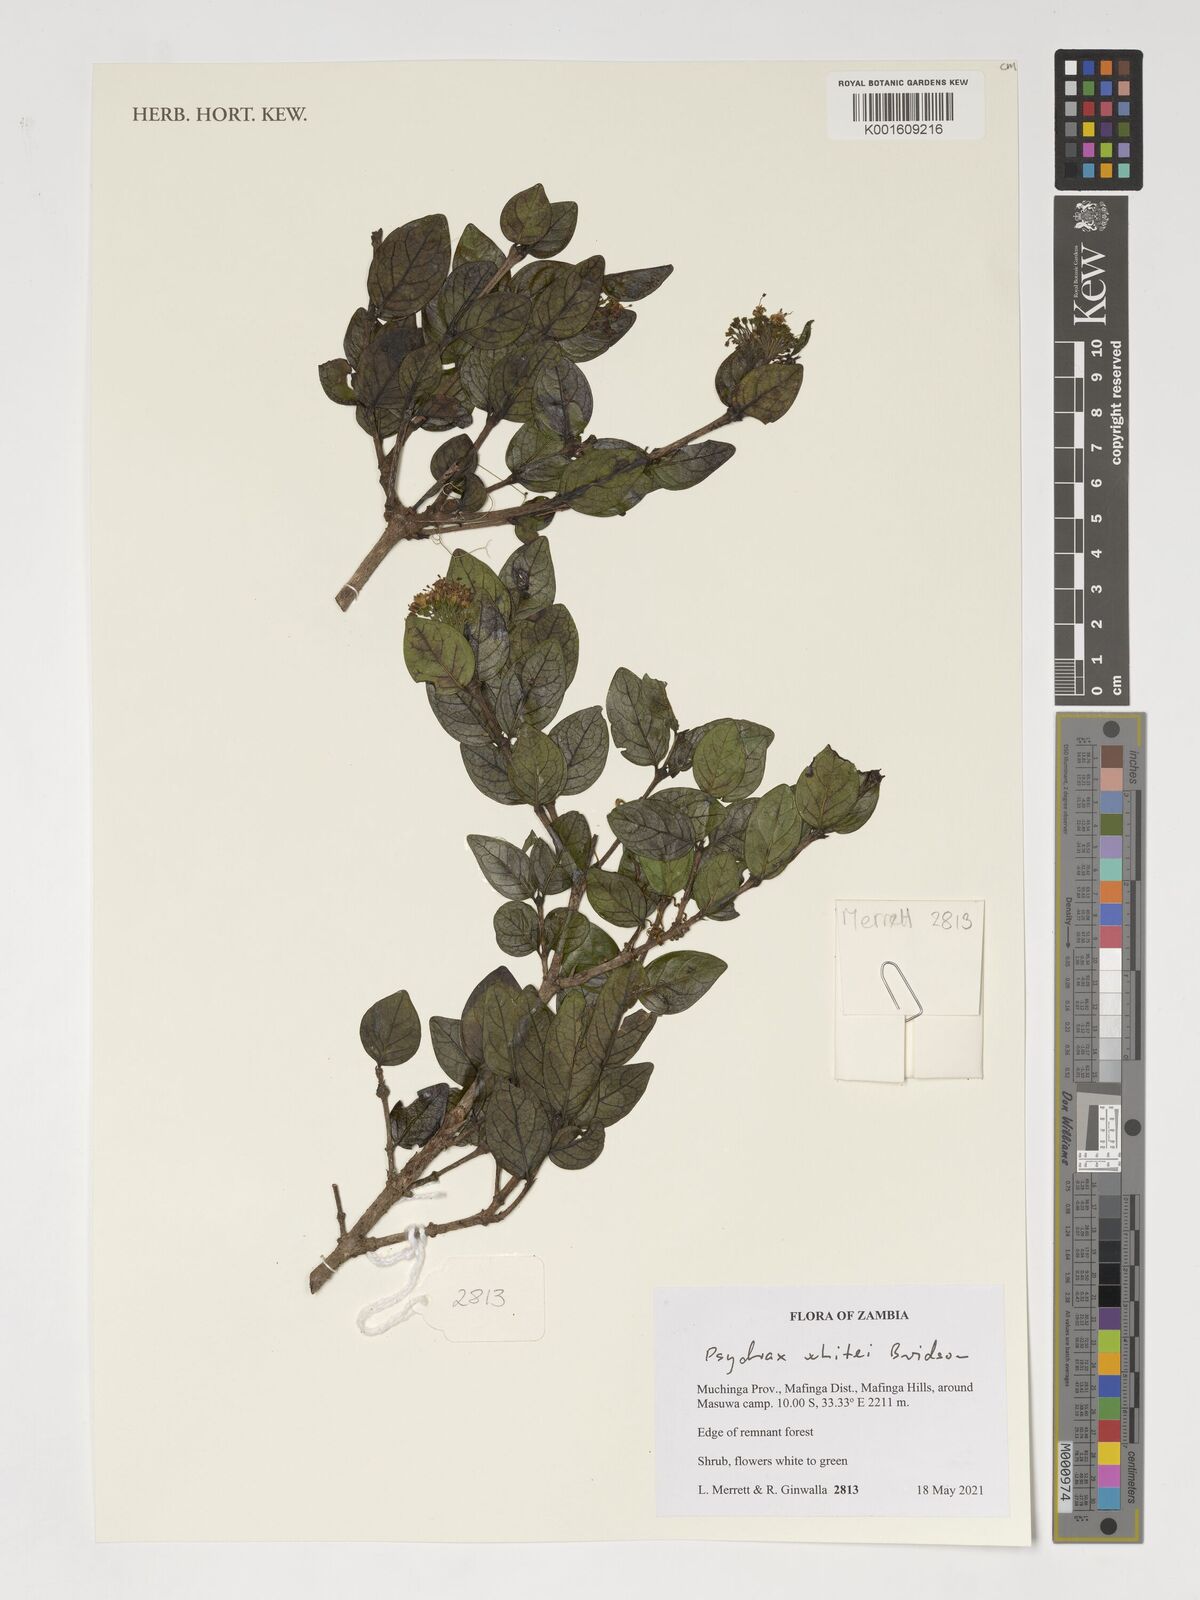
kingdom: Plantae
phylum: Tracheophyta
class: Magnoliopsida
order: Gentianales
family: Rubiaceae
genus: Psydrax
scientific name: Psydrax whitei
